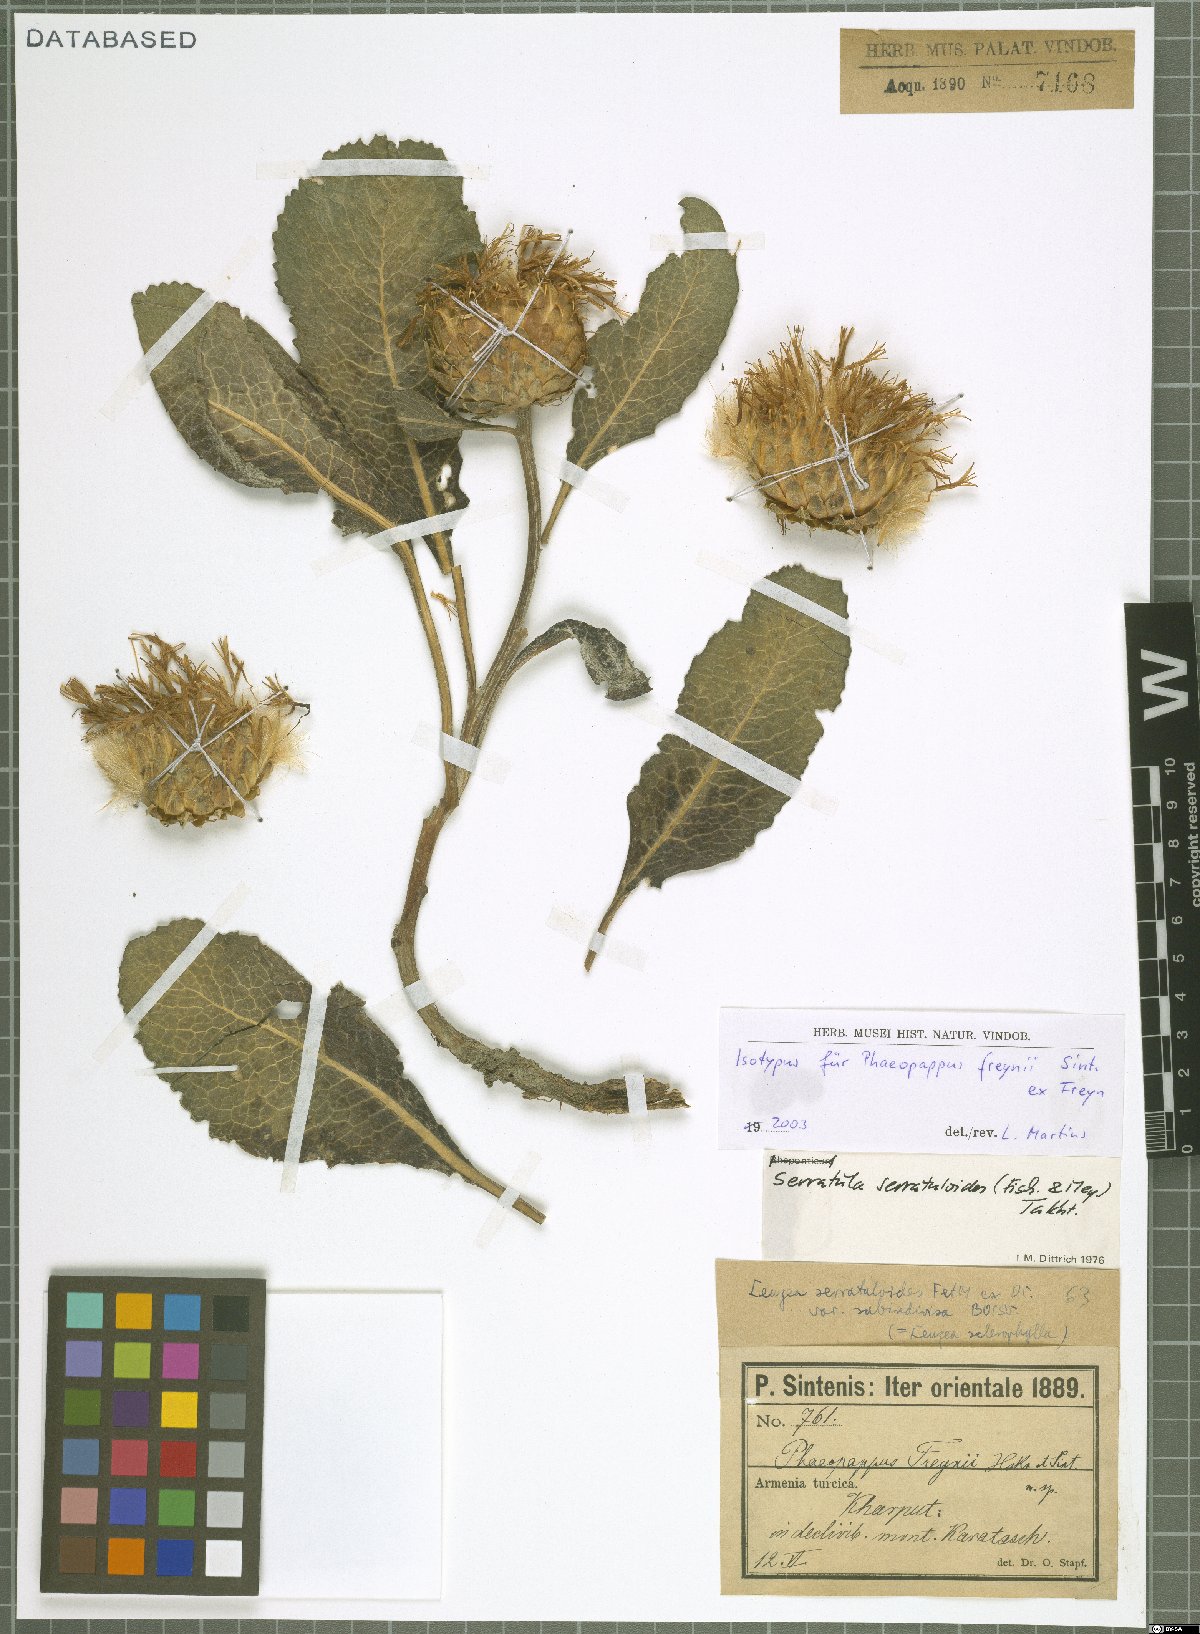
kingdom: Plantae
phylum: Tracheophyta
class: Magnoliopsida
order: Asterales
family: Asteraceae
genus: Klasea
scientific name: Klasea serratuloides
